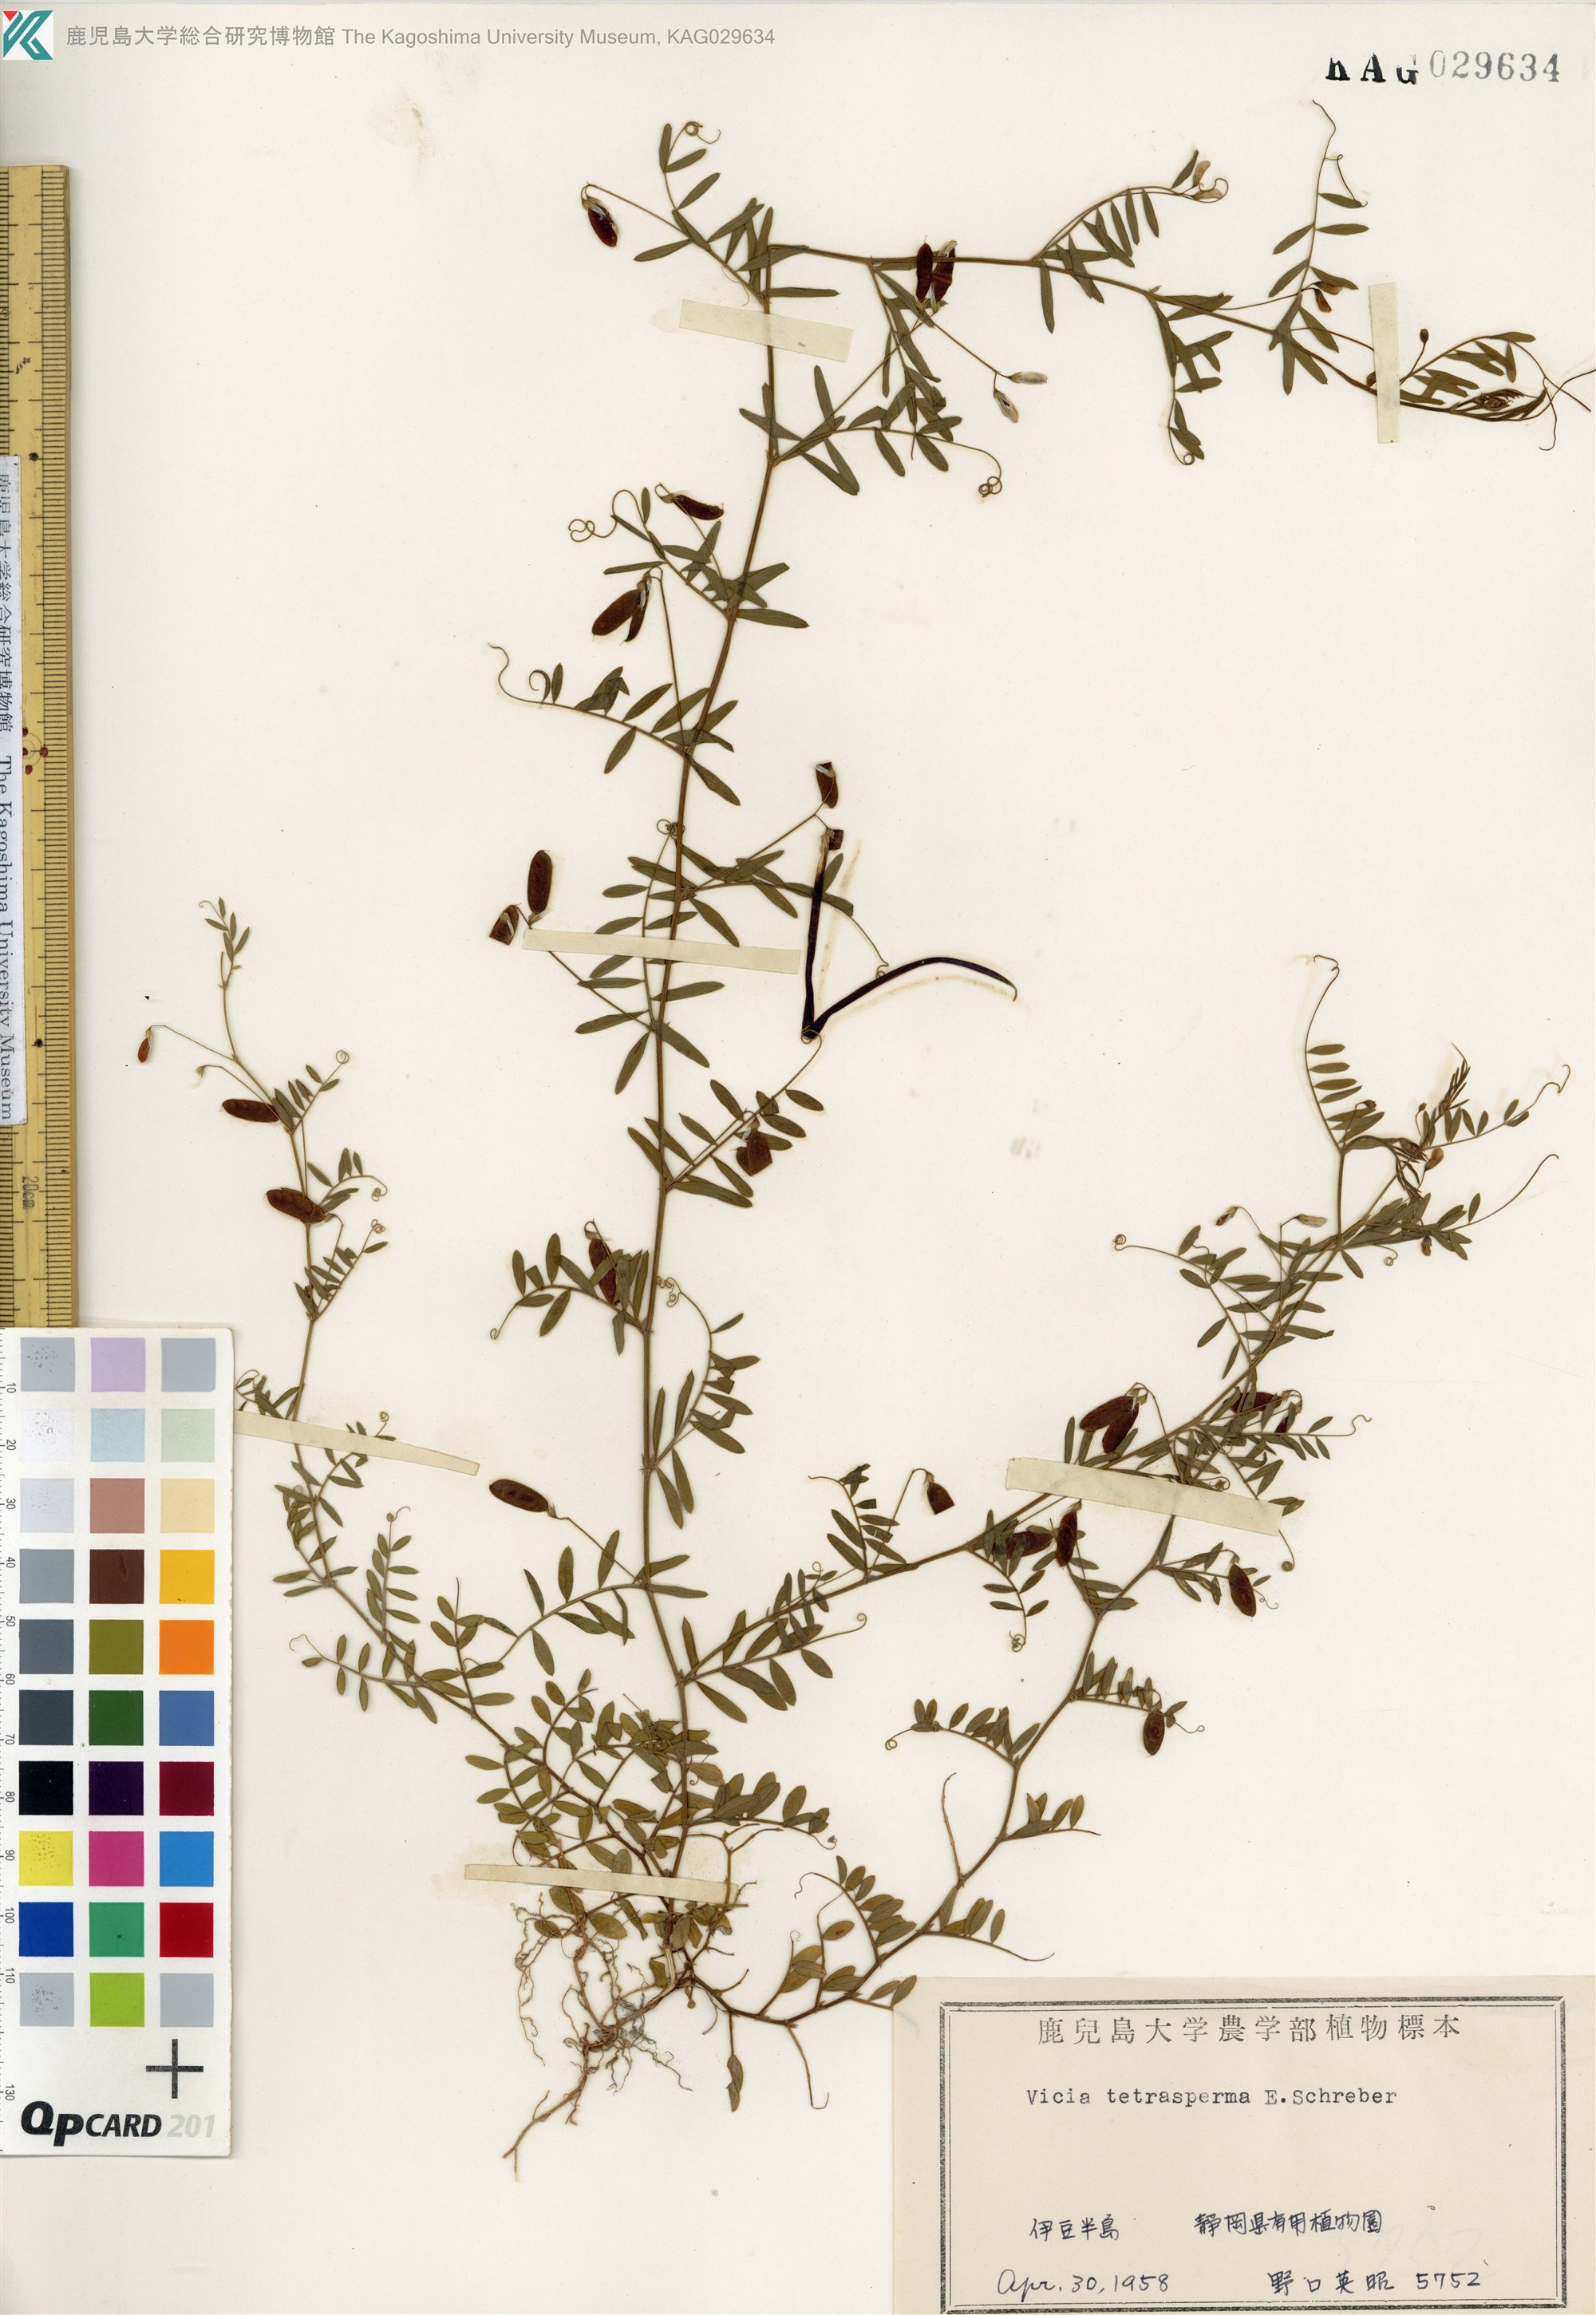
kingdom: Plantae
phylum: Tracheophyta
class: Magnoliopsida
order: Fabales
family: Fabaceae
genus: Vicia
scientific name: Vicia tetrasperma
